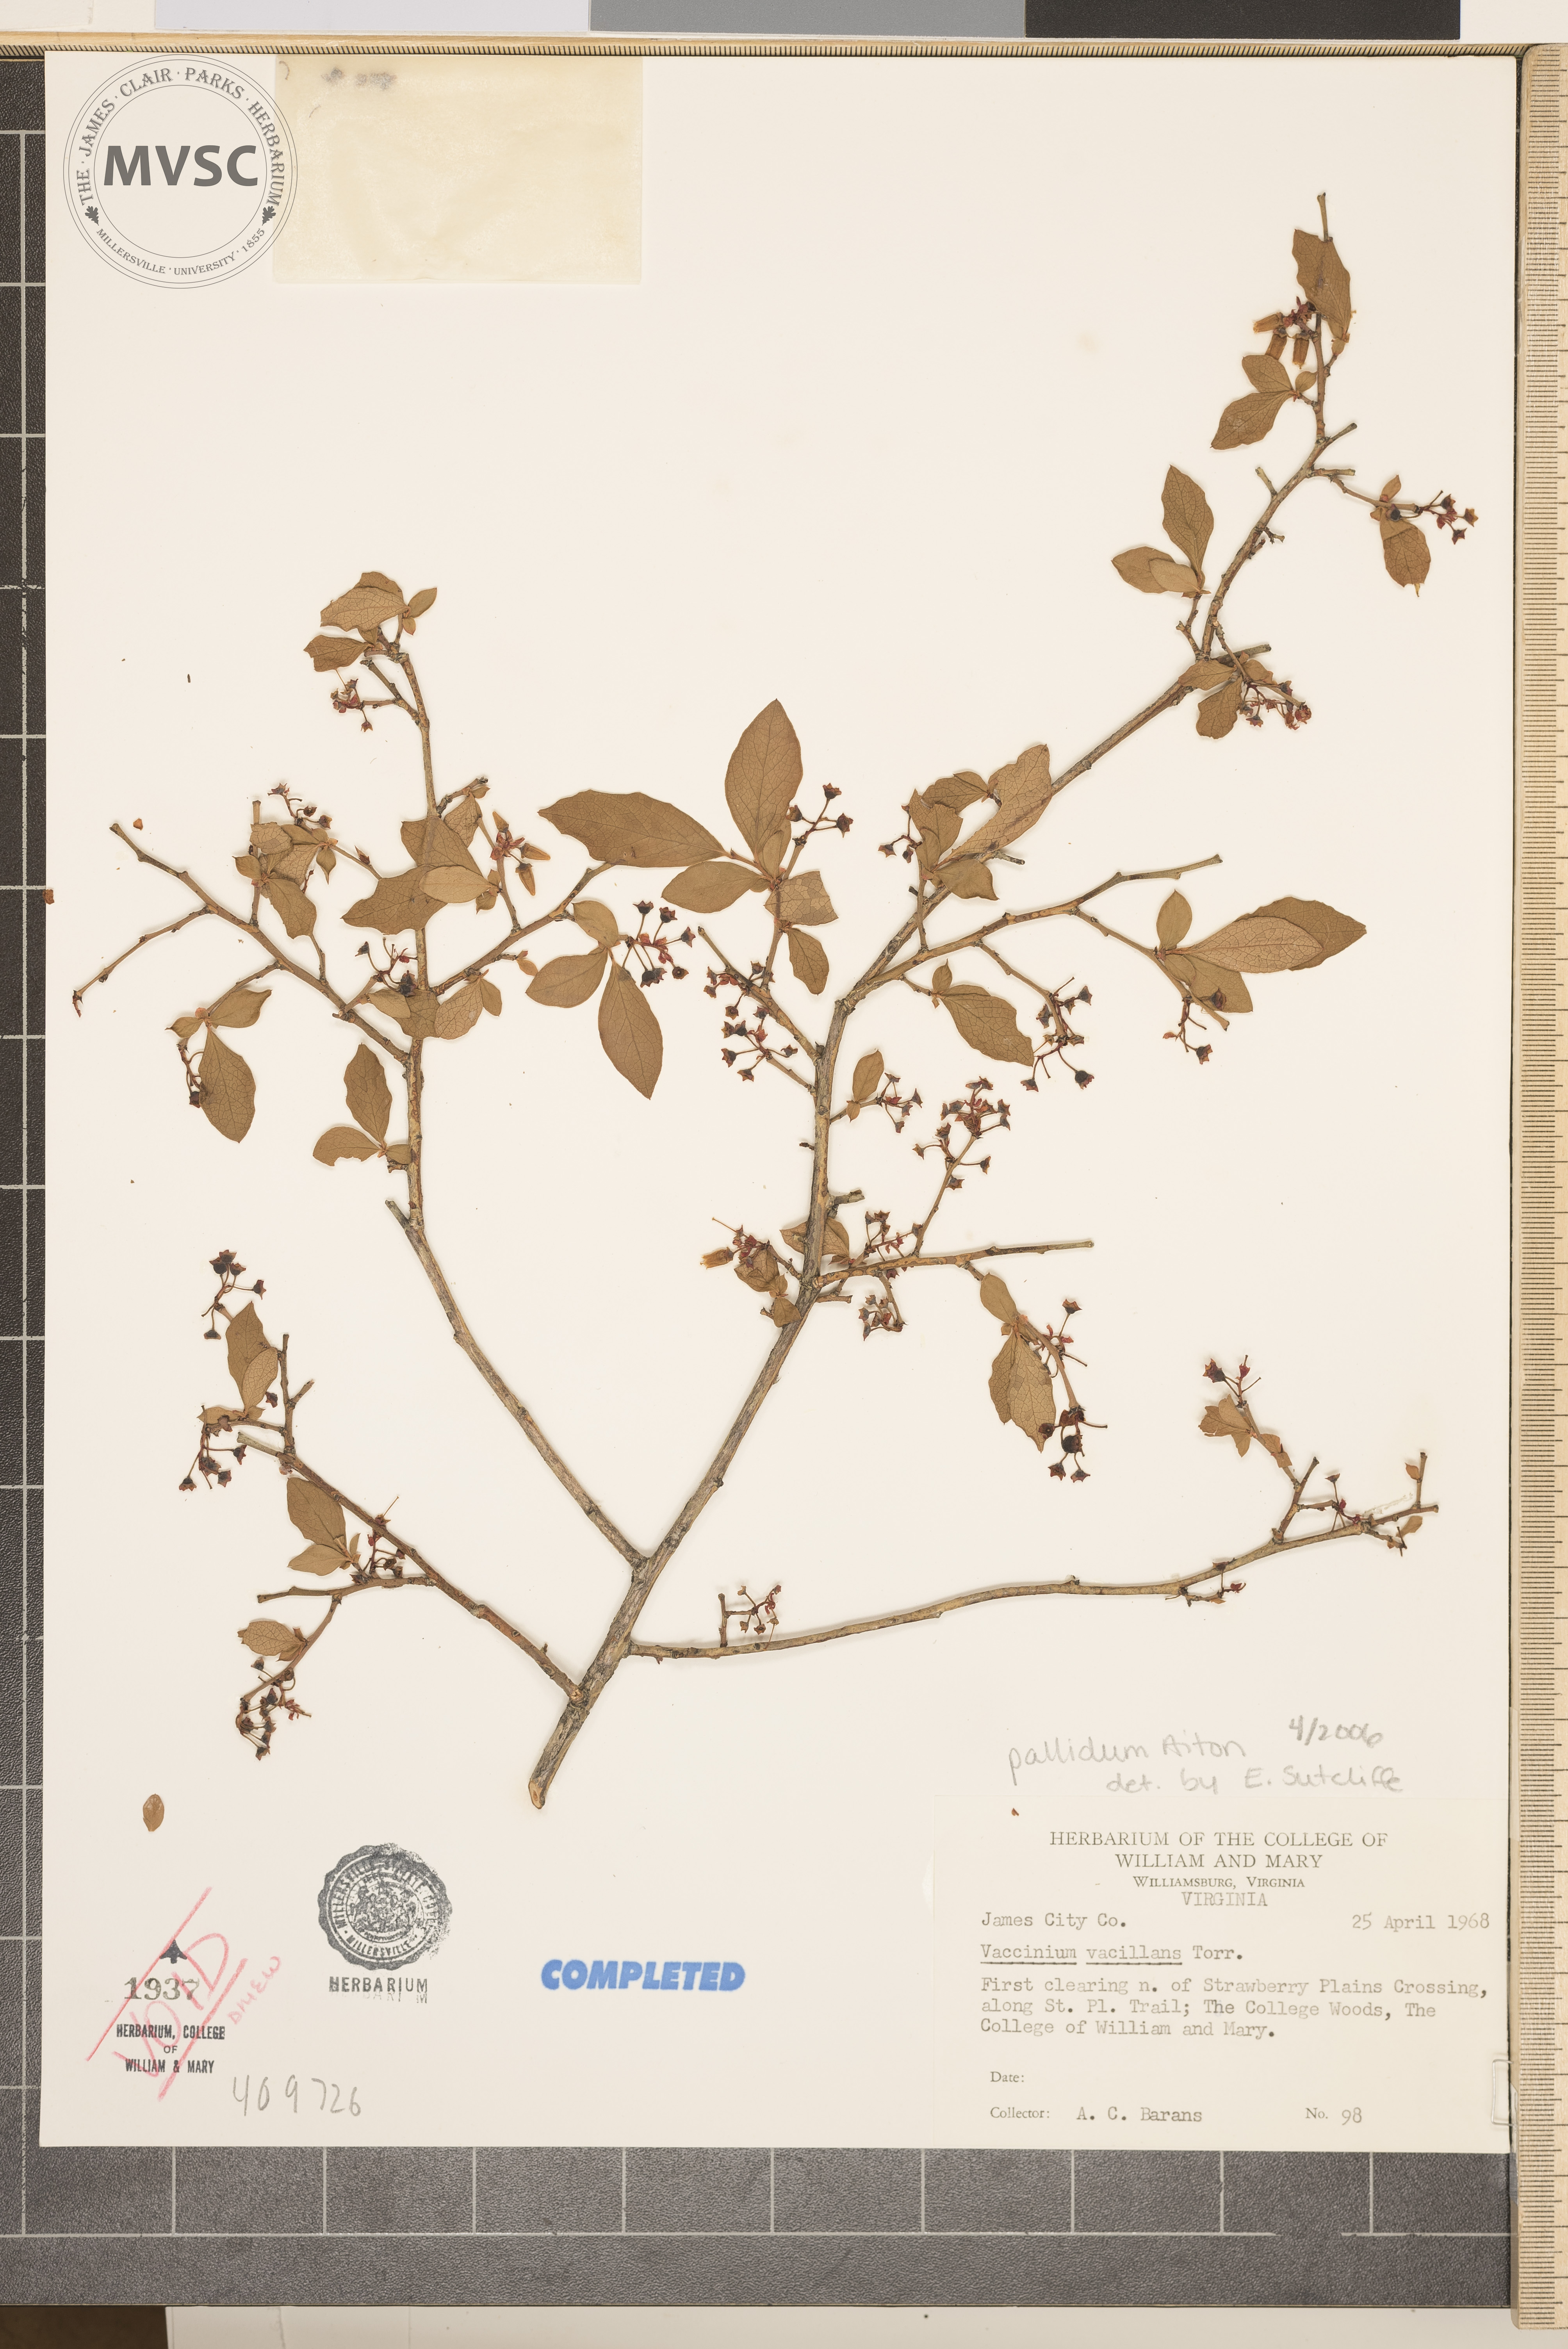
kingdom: Plantae
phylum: Tracheophyta
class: Magnoliopsida
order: Ericales
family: Ericaceae
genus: Vaccinium
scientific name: Vaccinium pallidum
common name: Blue ridge blueberry
